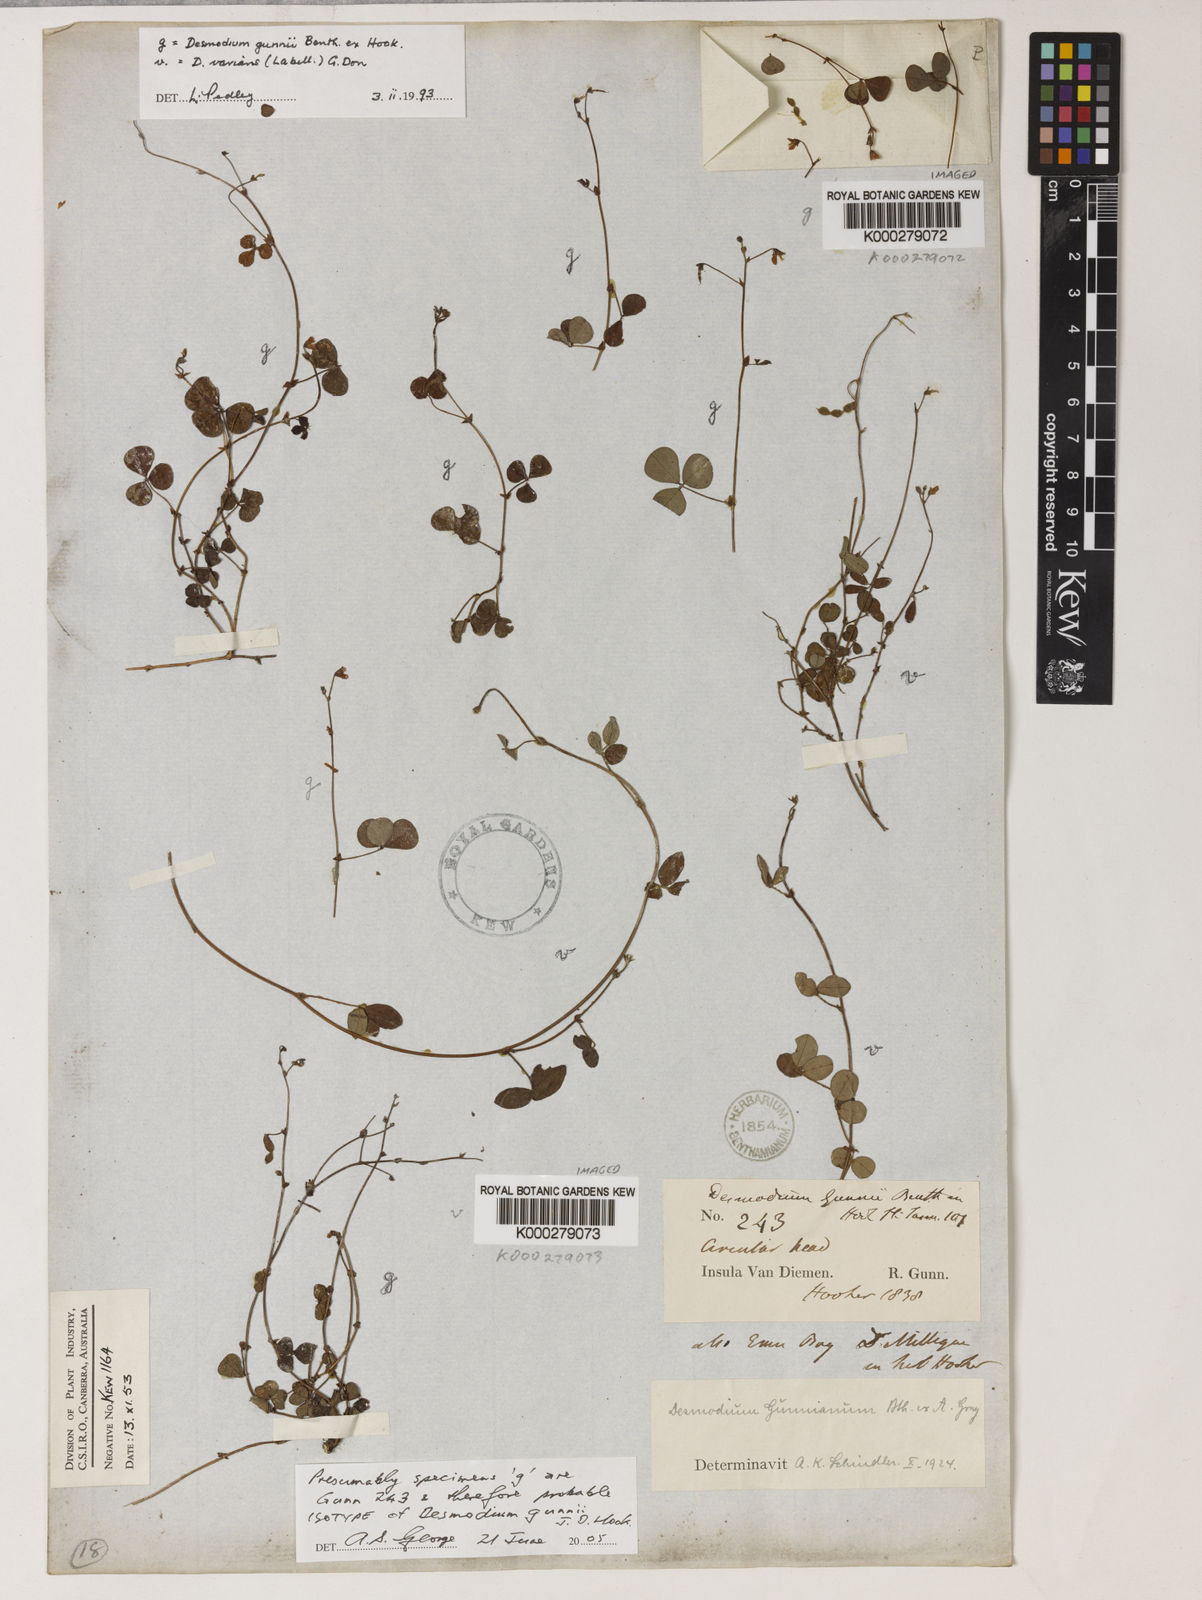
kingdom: Plantae
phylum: Tracheophyta
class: Magnoliopsida
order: Fabales
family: Fabaceae
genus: Pullenia
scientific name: Pullenia gunnii
